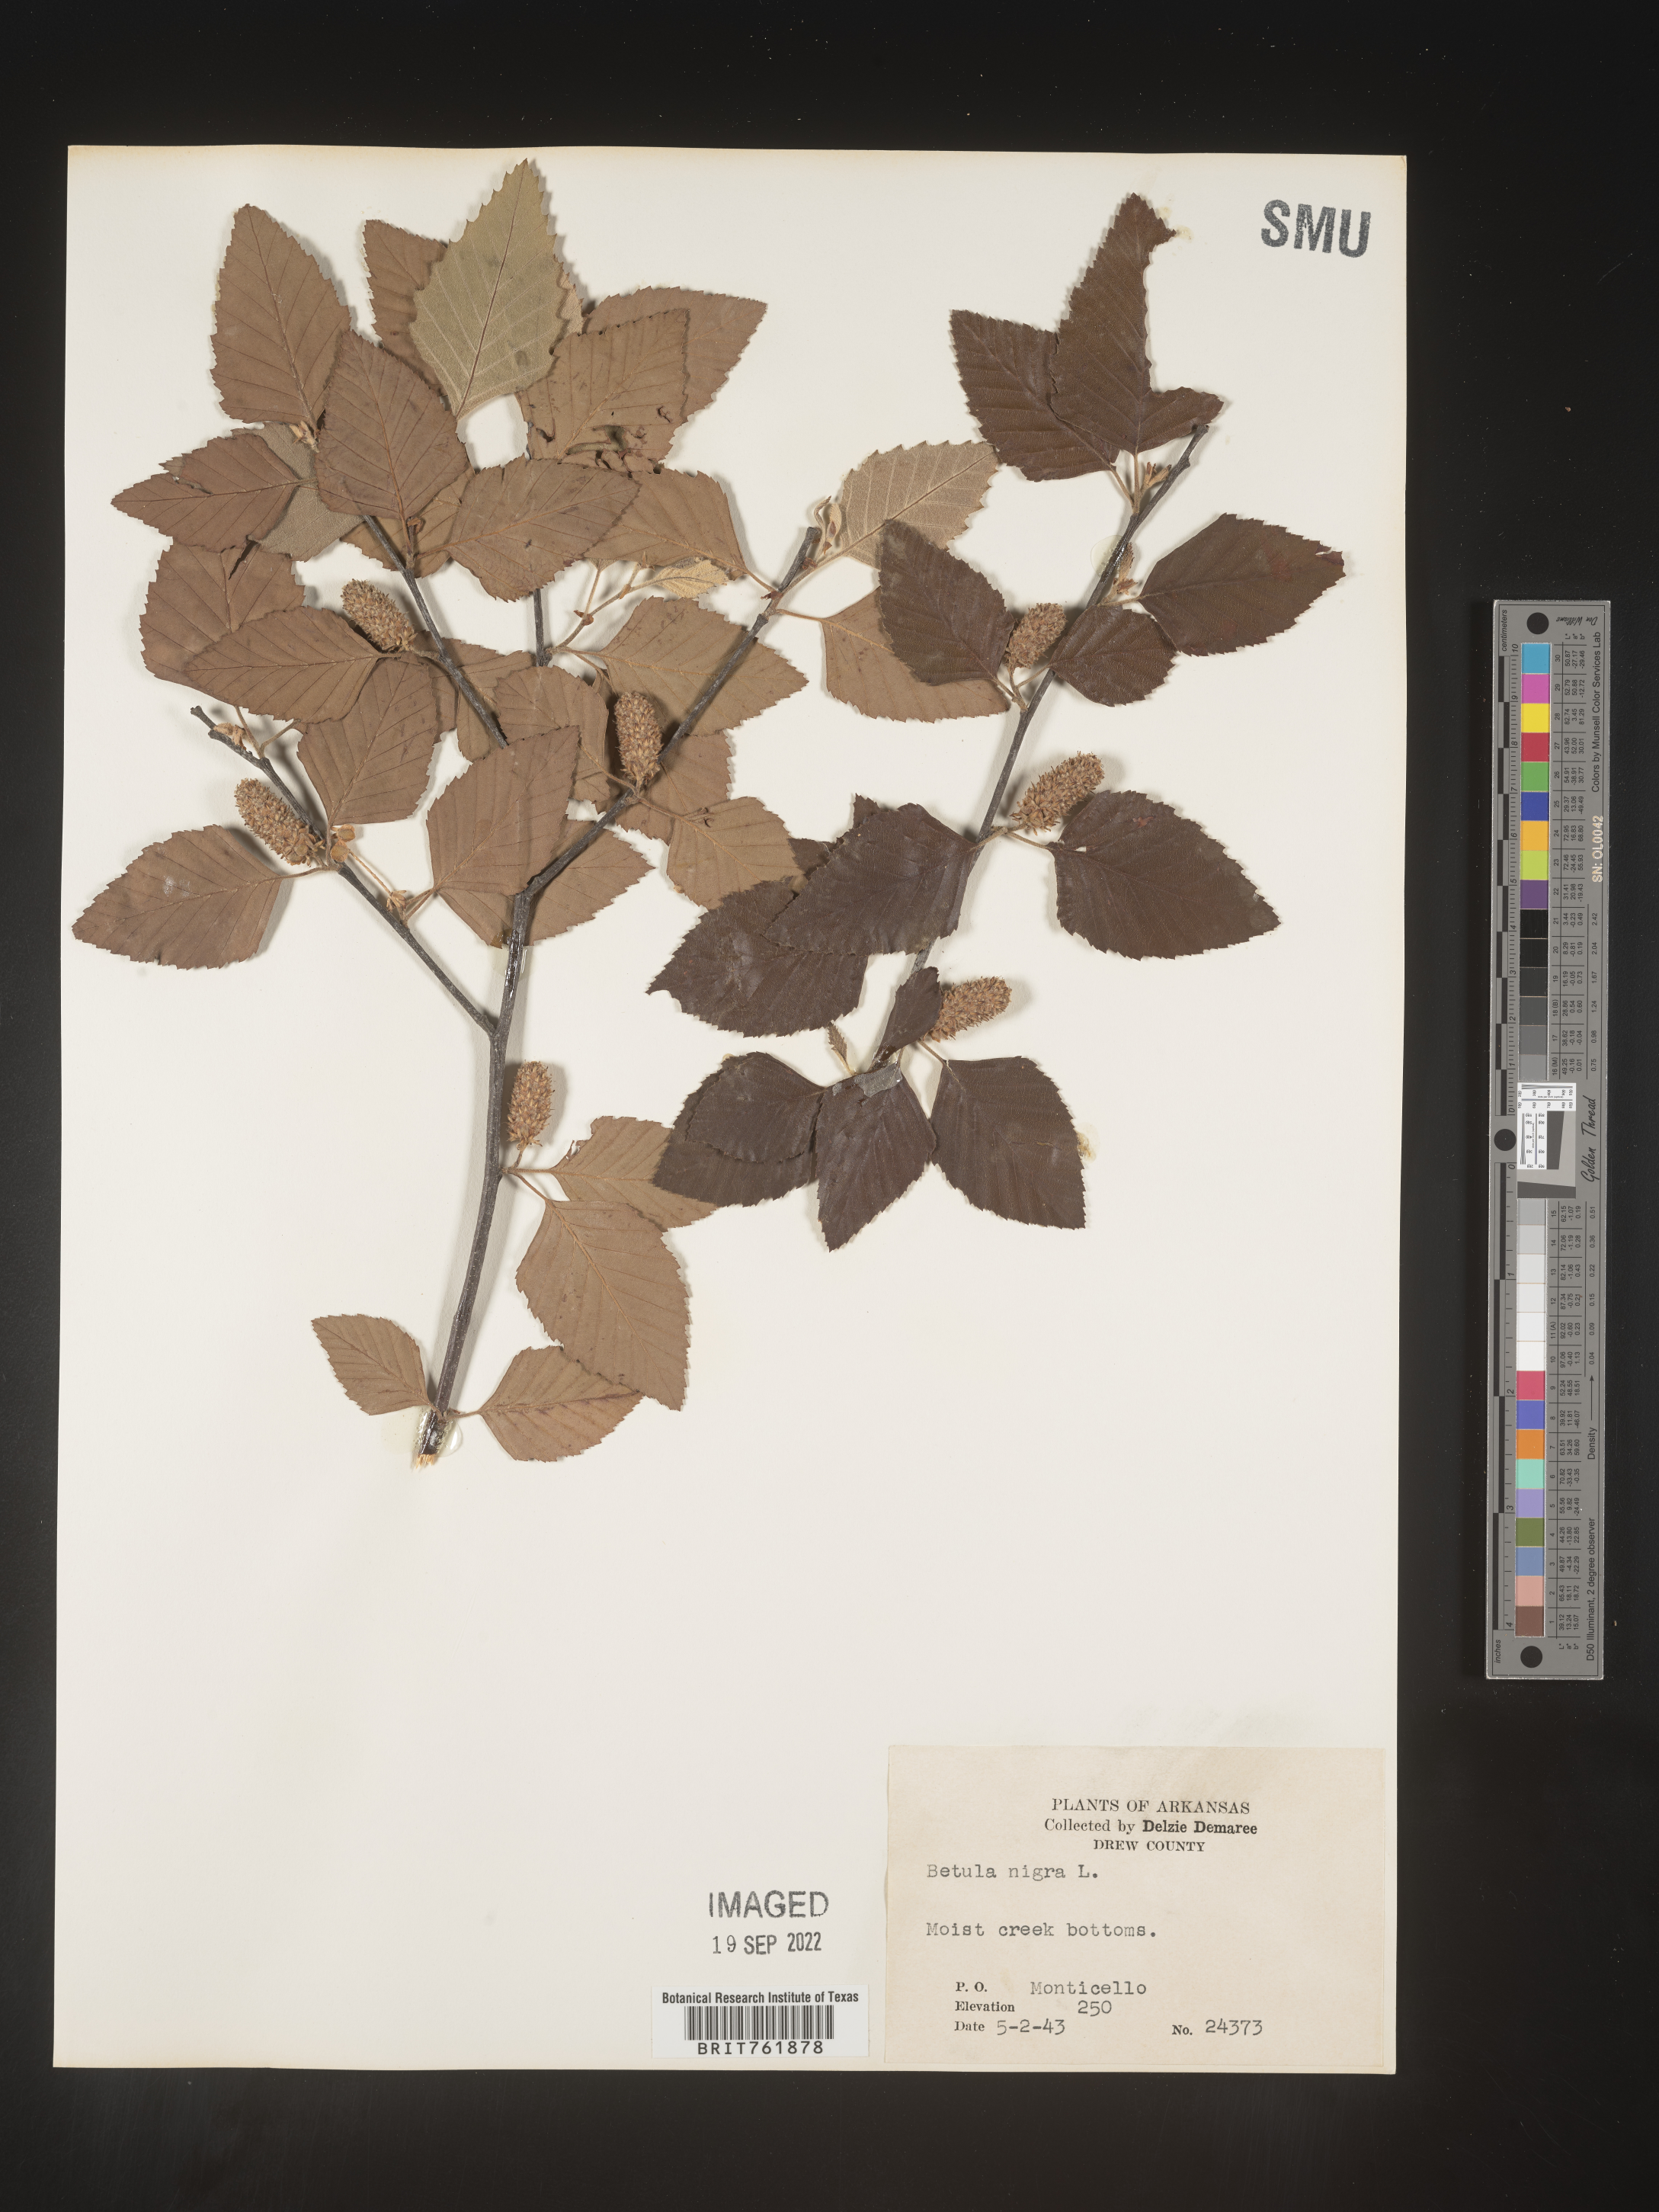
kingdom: Plantae
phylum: Tracheophyta
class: Magnoliopsida
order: Fagales
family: Betulaceae
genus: Betula
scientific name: Betula nigra
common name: Black birch
